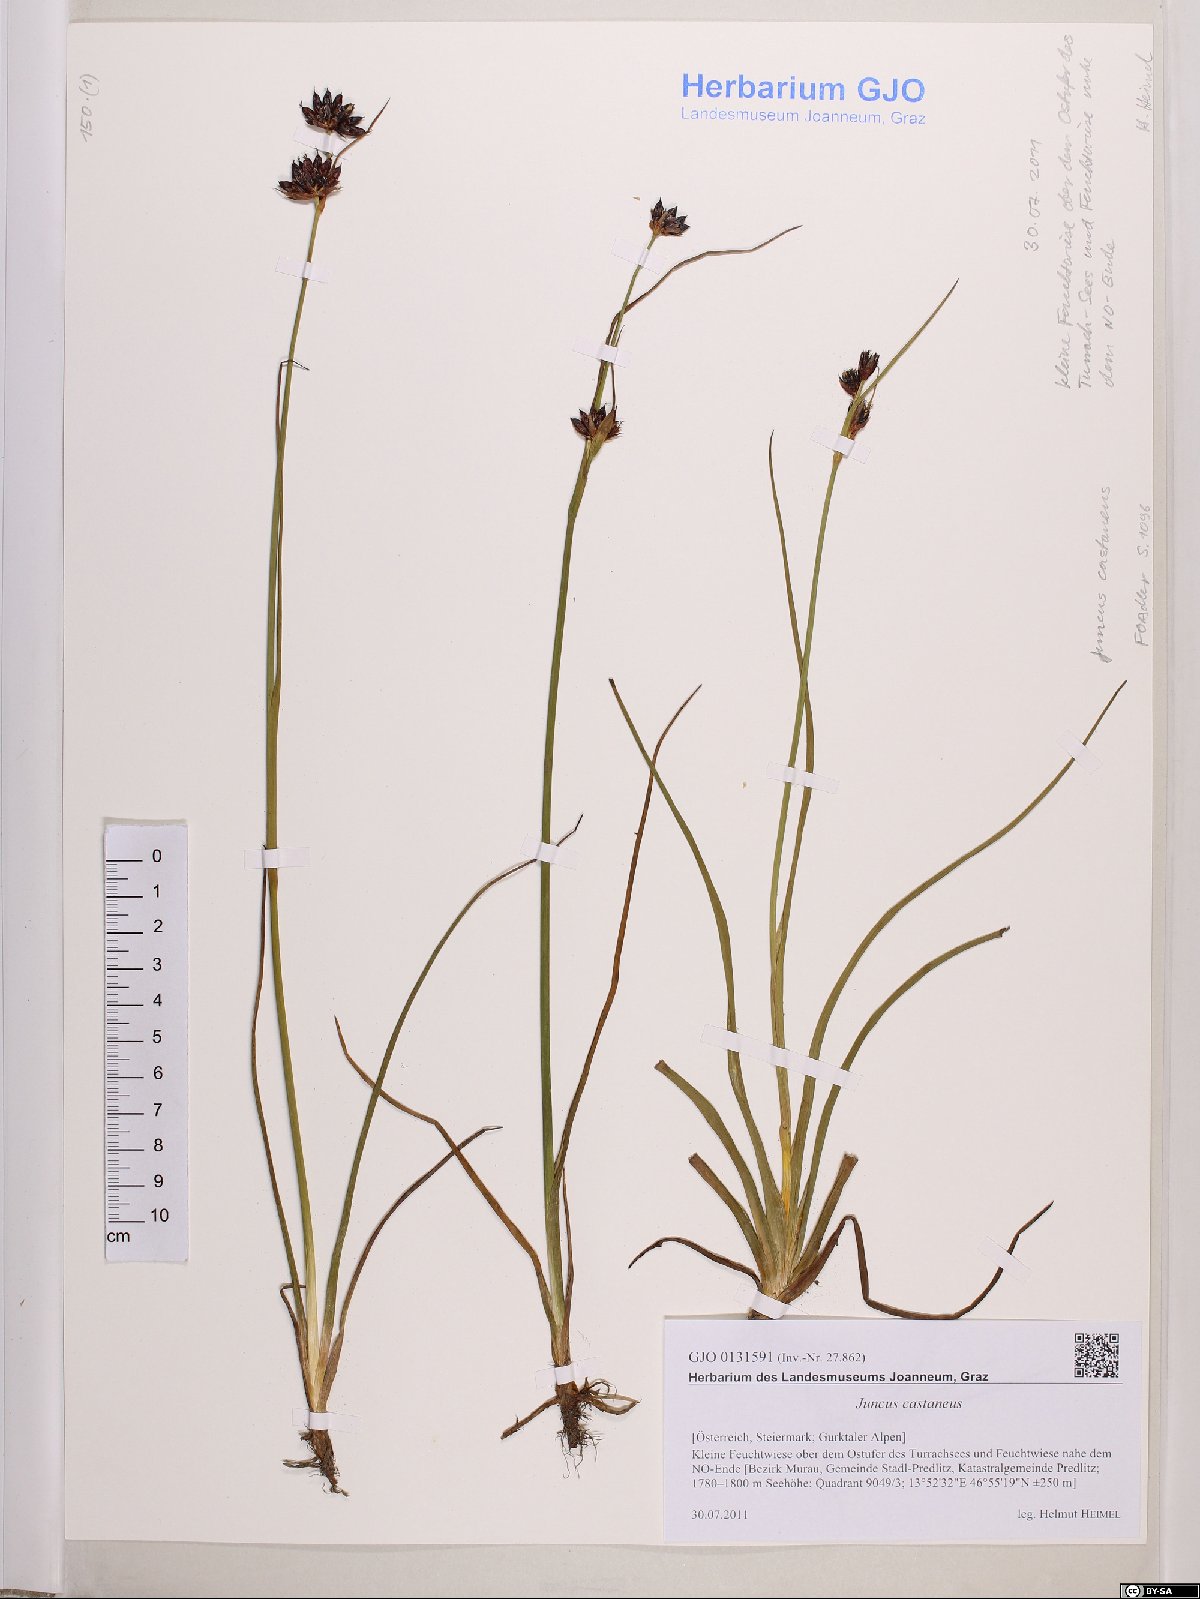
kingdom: Plantae
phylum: Tracheophyta
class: Liliopsida
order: Poales
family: Juncaceae
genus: Juncus
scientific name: Juncus castaneus
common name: Chestnut rush
